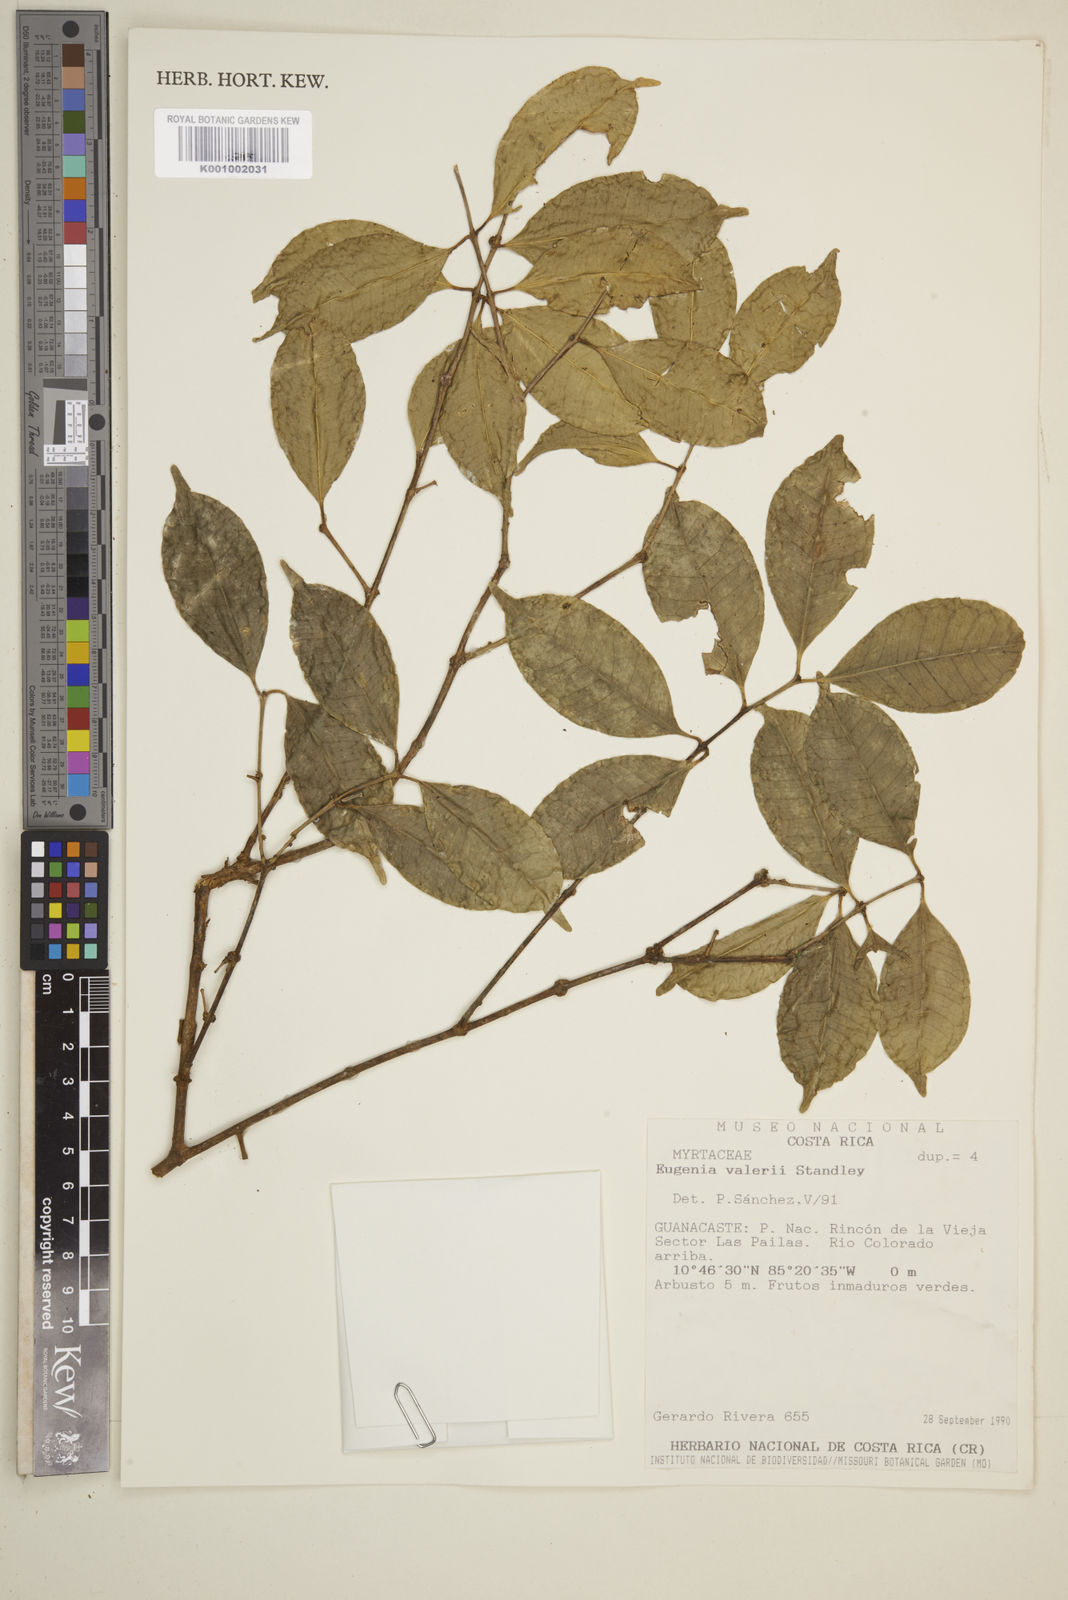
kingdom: Plantae
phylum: Tracheophyta
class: Magnoliopsida
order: Myrtales
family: Myrtaceae
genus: Eugenia
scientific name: Eugenia
